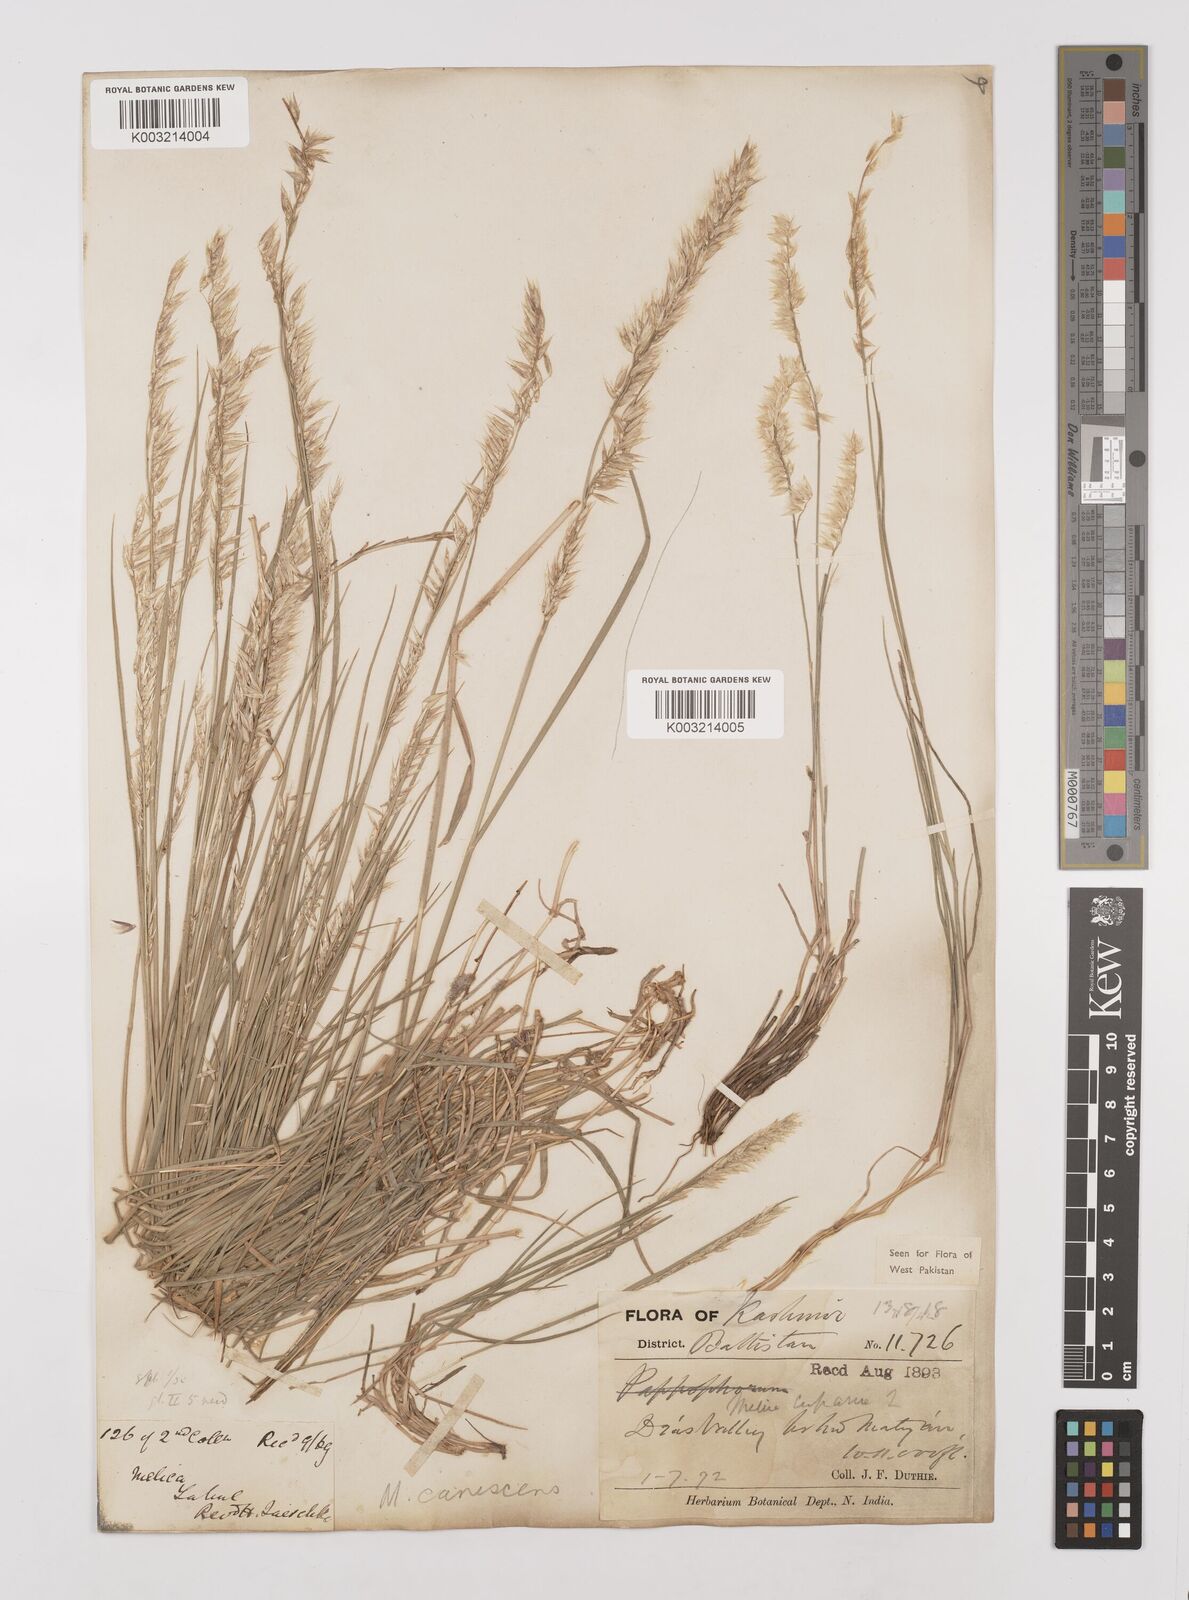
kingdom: Plantae
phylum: Tracheophyta
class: Liliopsida
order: Poales
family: Poaceae
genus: Melica
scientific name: Melica persica
